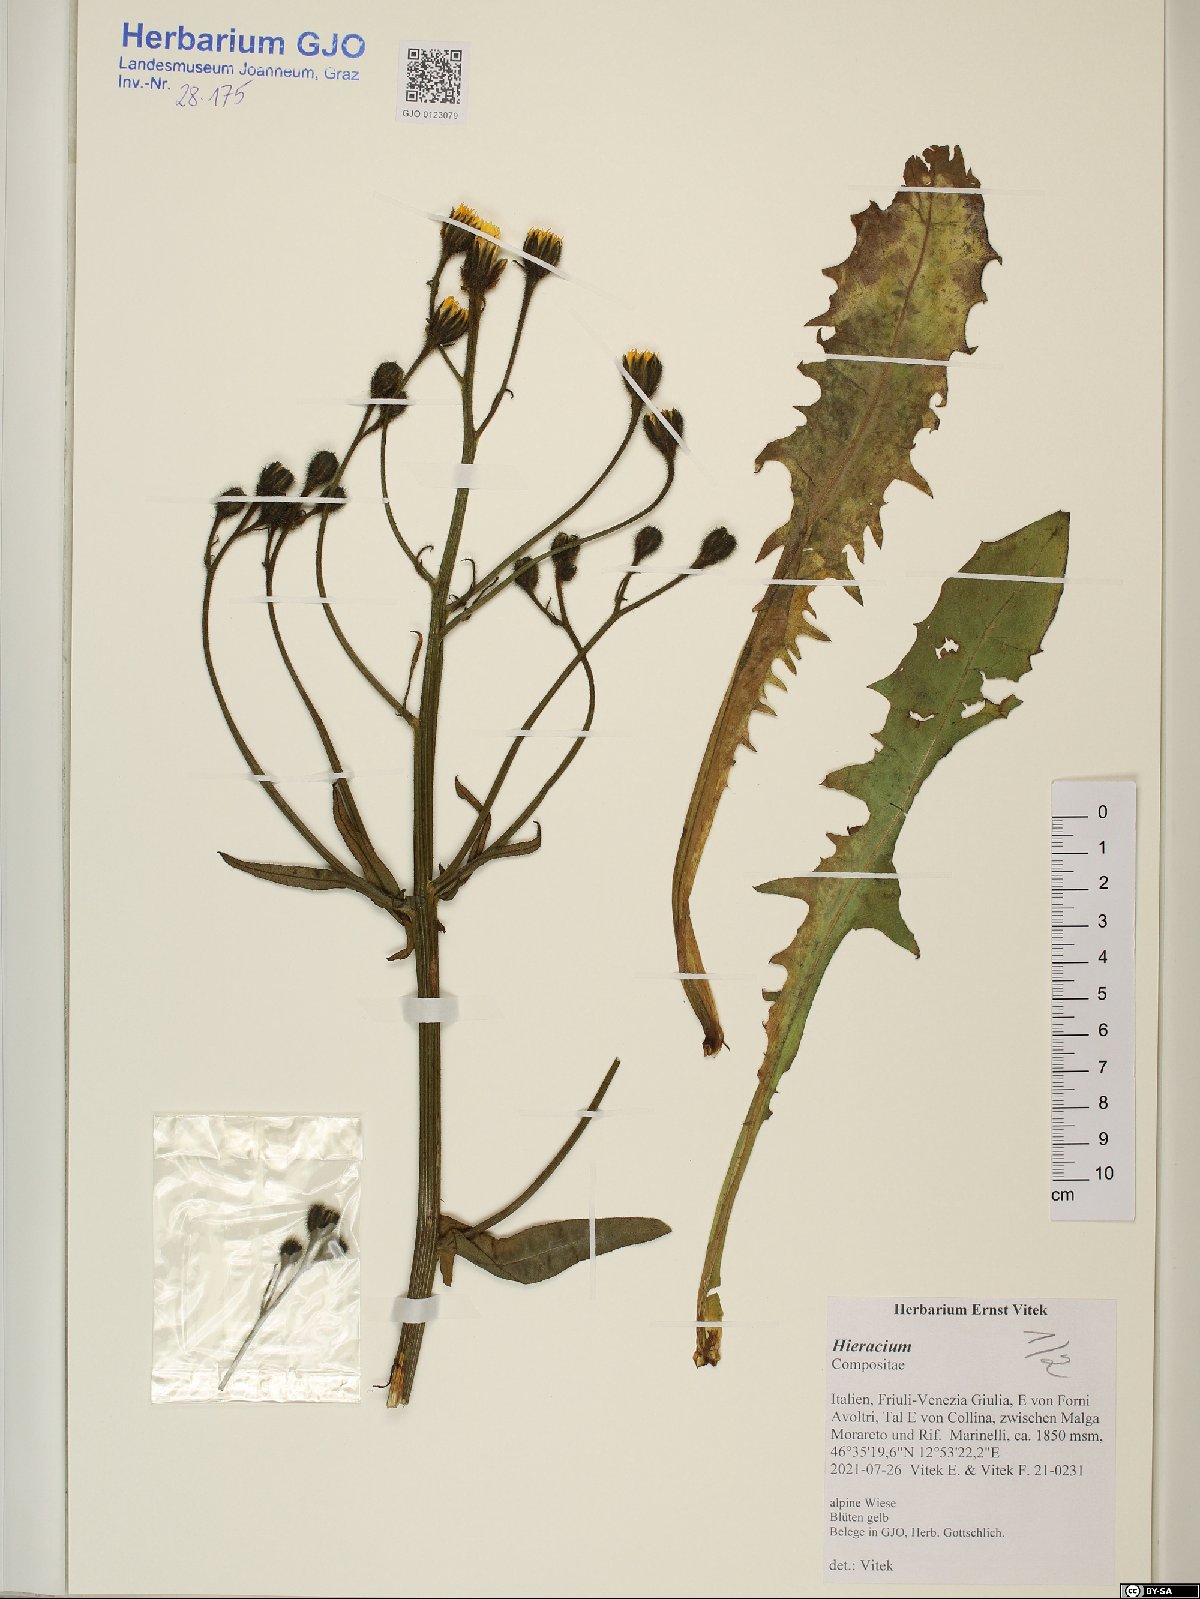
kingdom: Plantae
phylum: Tracheophyta
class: Magnoliopsida
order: Asterales
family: Asteraceae
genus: Hieracium
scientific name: Hieracium
